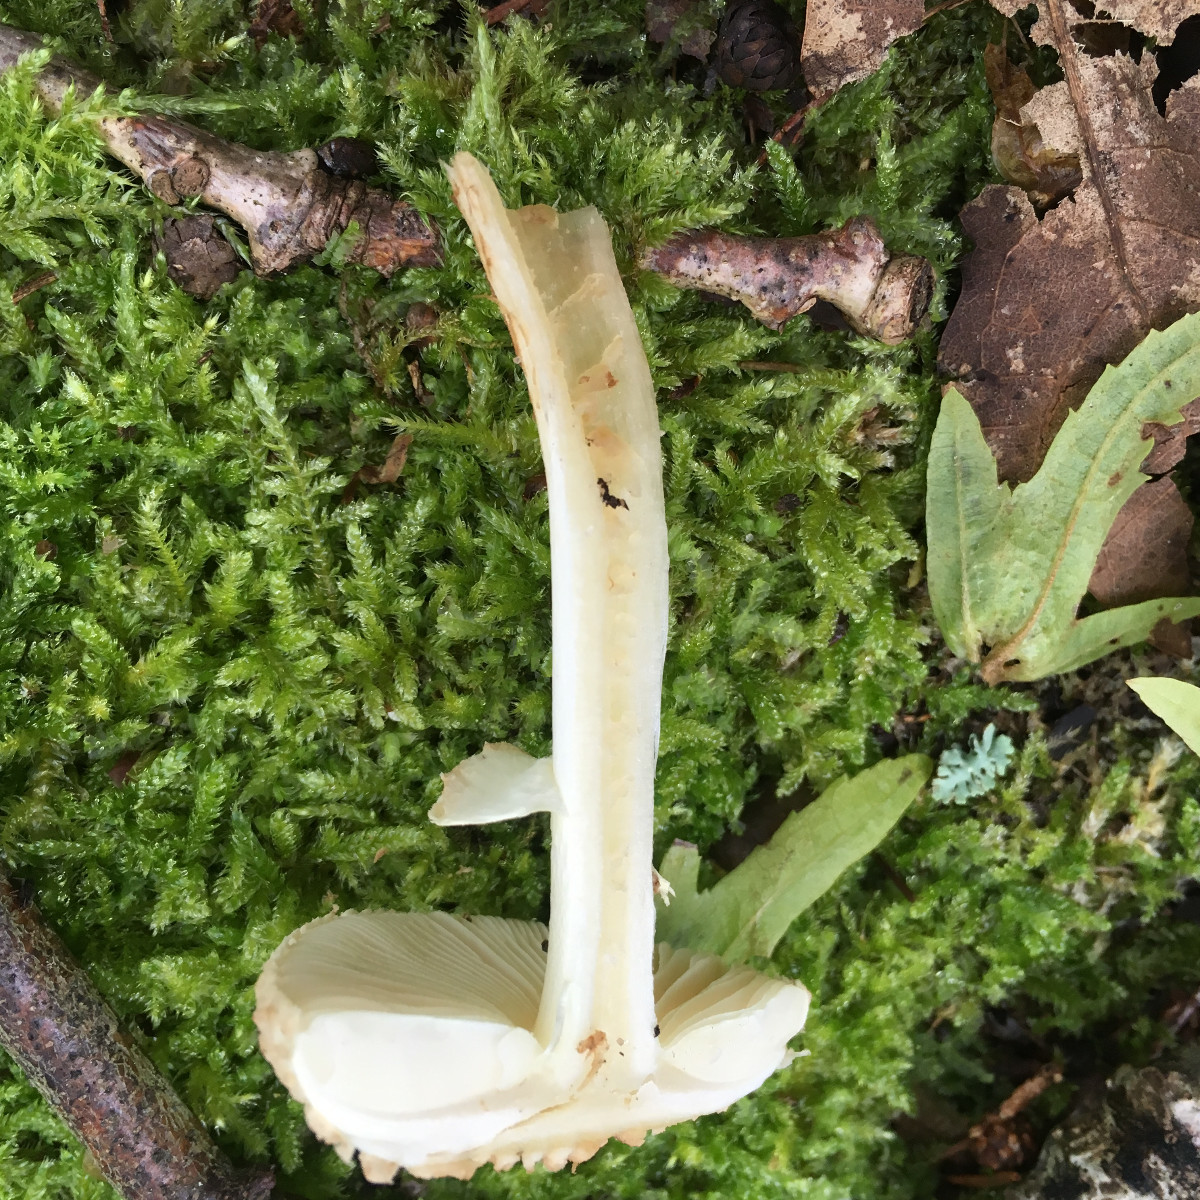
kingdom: Fungi
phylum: Basidiomycota
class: Agaricomycetes
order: Agaricales
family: Amanitaceae
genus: Amanita
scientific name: Amanita citrina
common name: False death-cap
